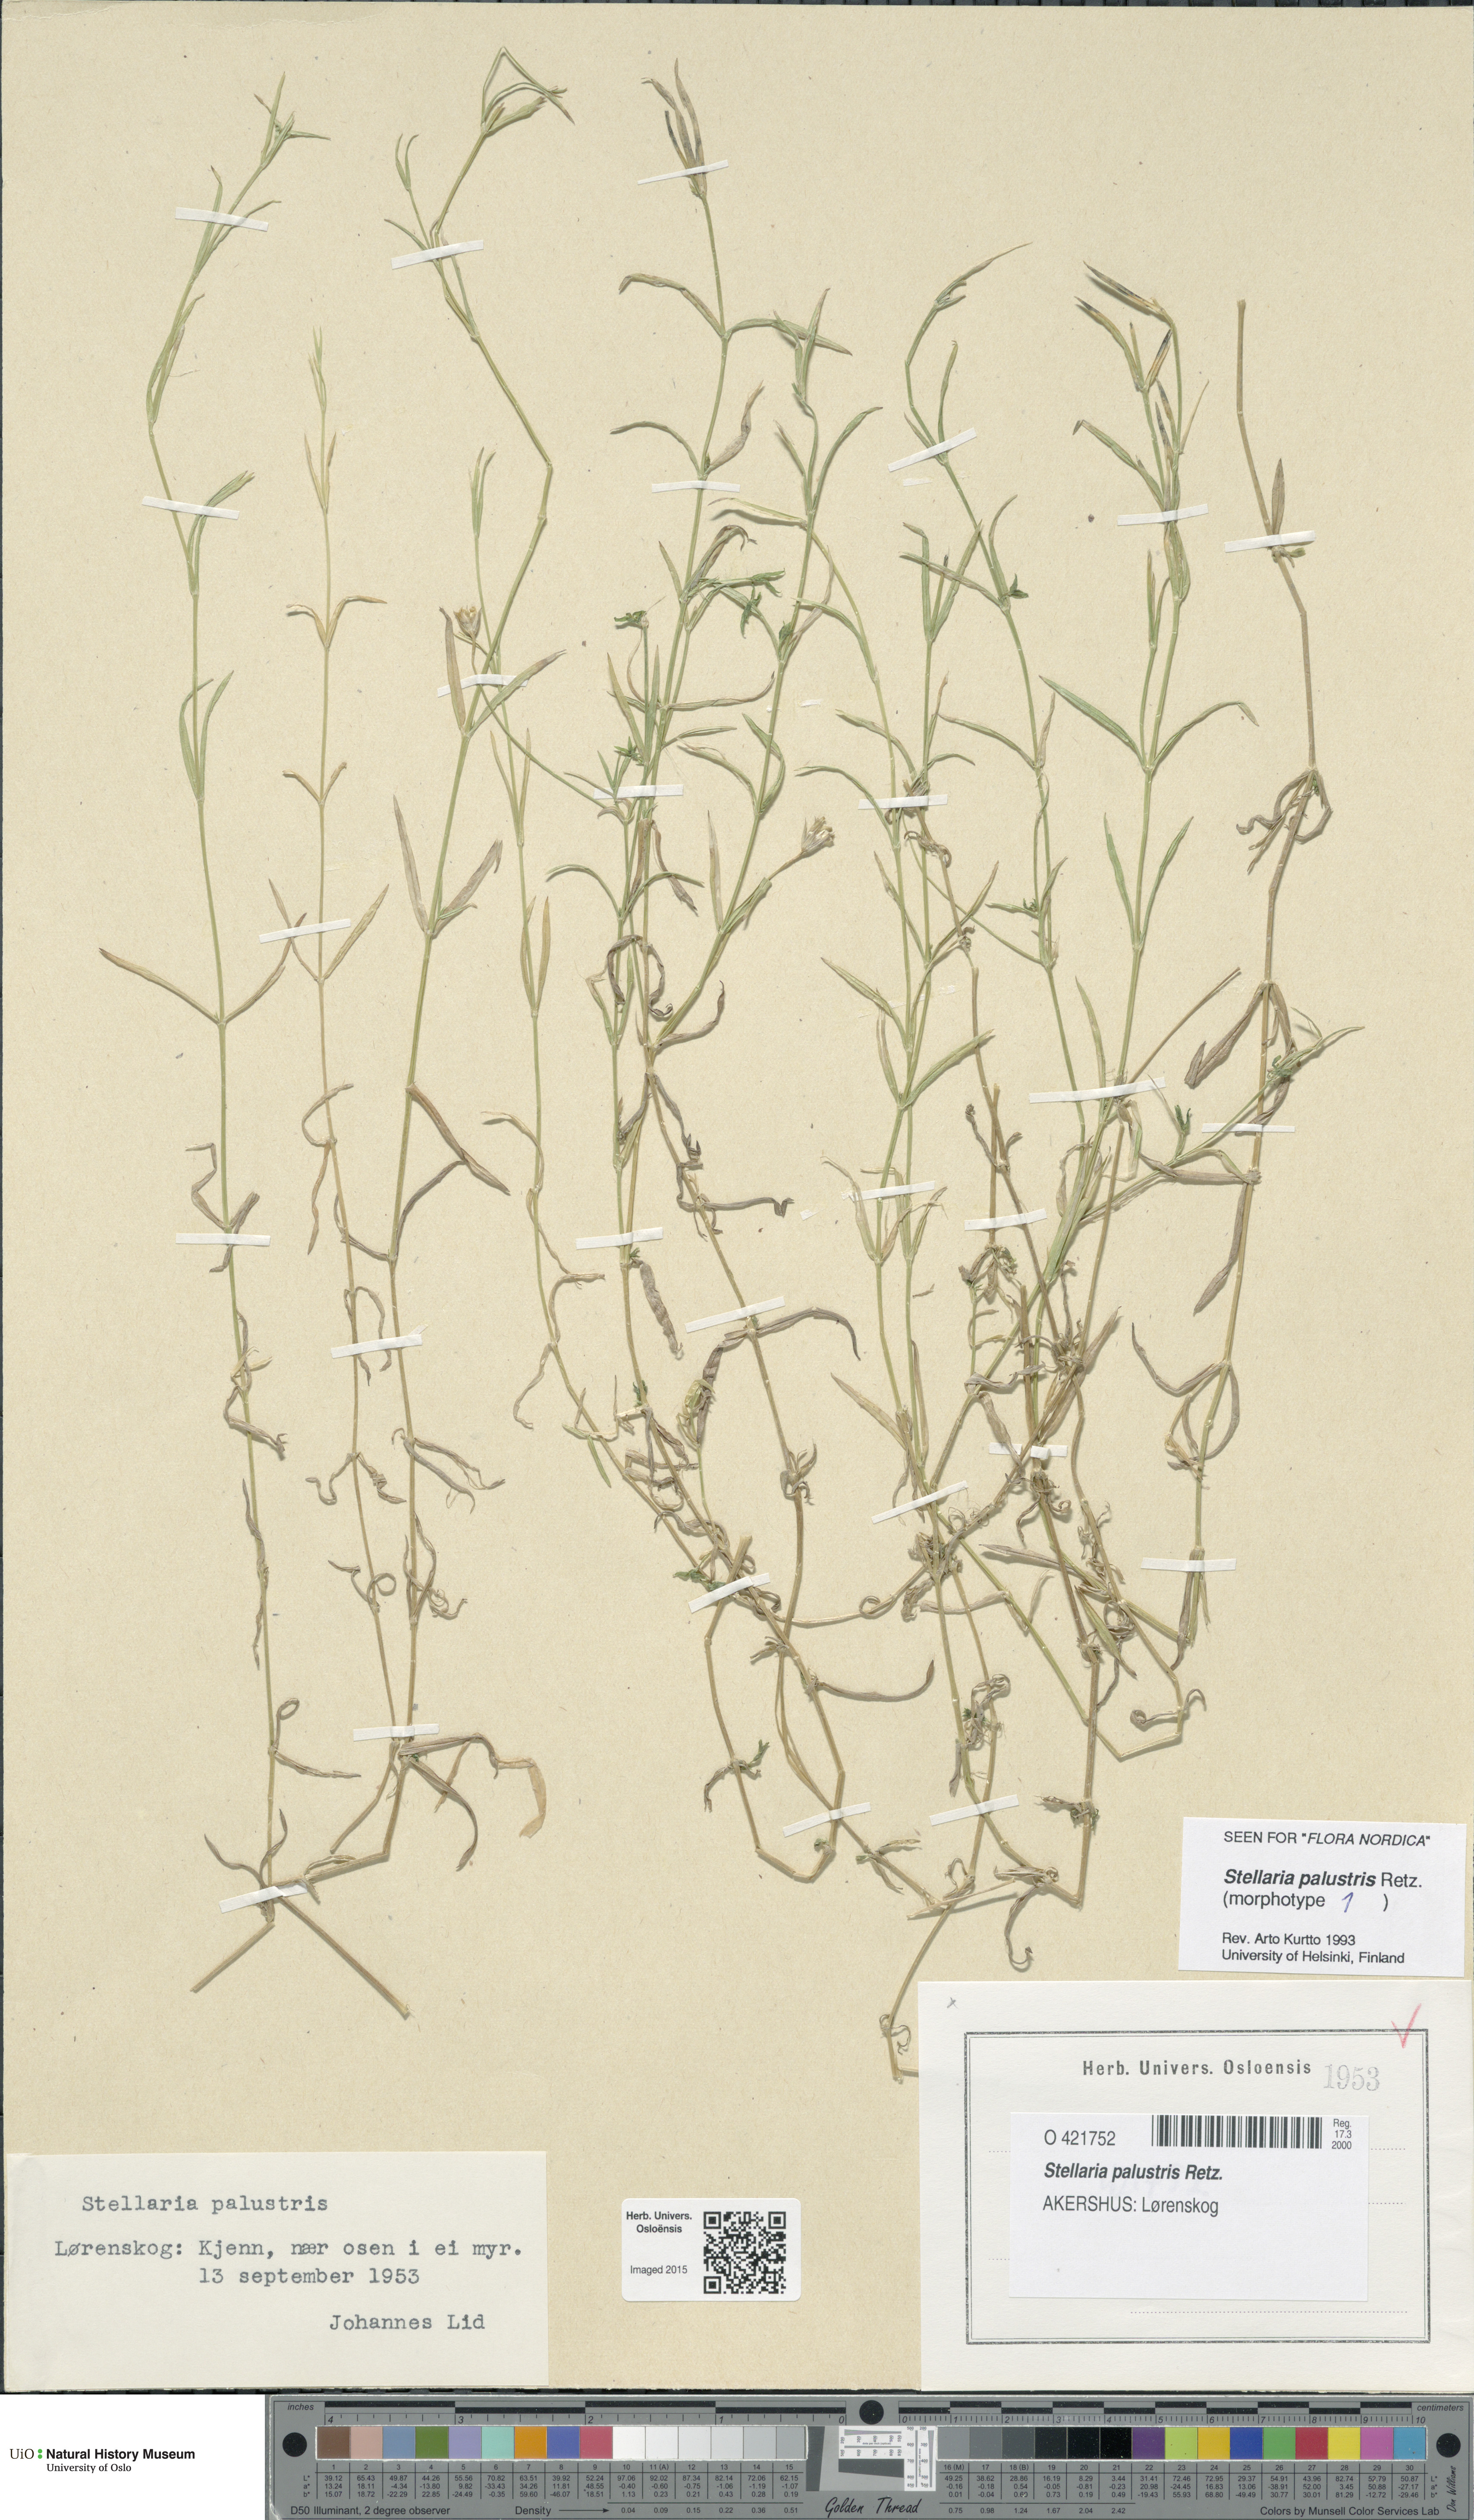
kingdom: Plantae
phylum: Tracheophyta
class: Magnoliopsida
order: Caryophyllales
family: Caryophyllaceae
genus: Stellaria
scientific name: Stellaria palustris
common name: Marsh stitchwort
